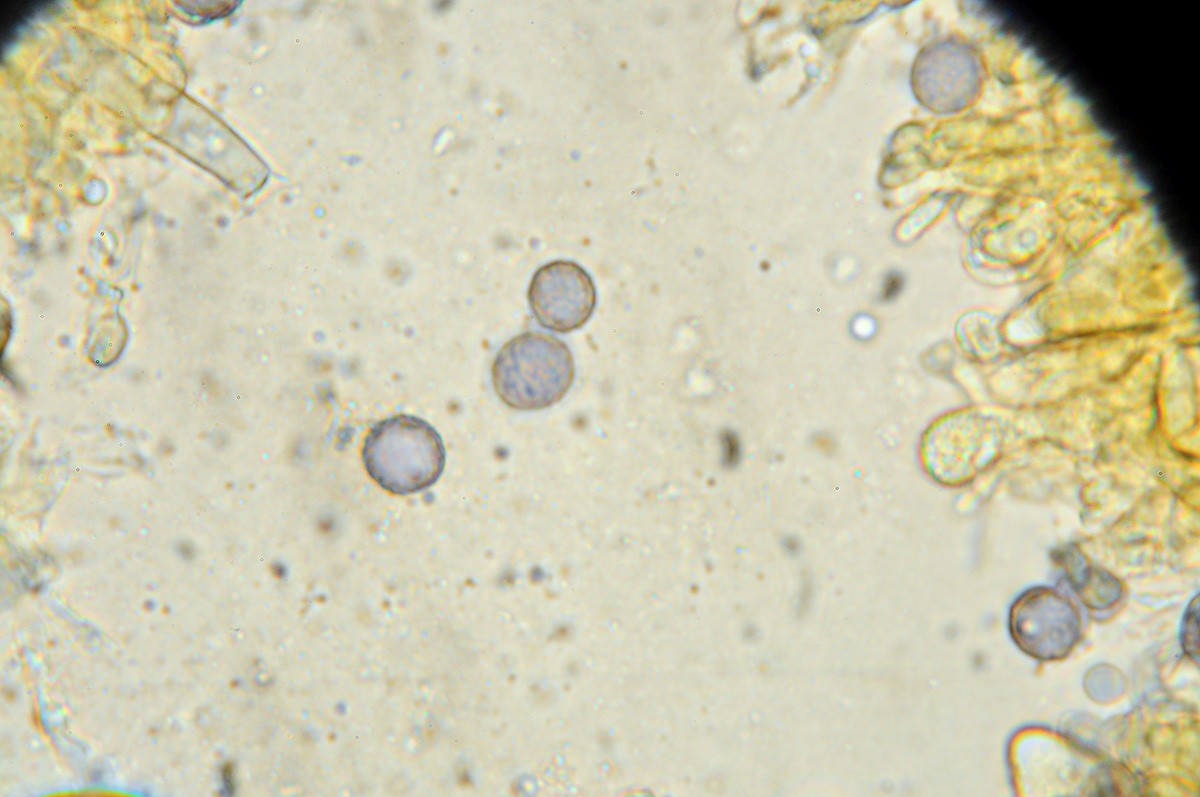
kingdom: Fungi
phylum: Basidiomycota
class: Agaricomycetes
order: Russulales
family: Russulaceae
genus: Russula
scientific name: Russula melliolens
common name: honning-skørhat
